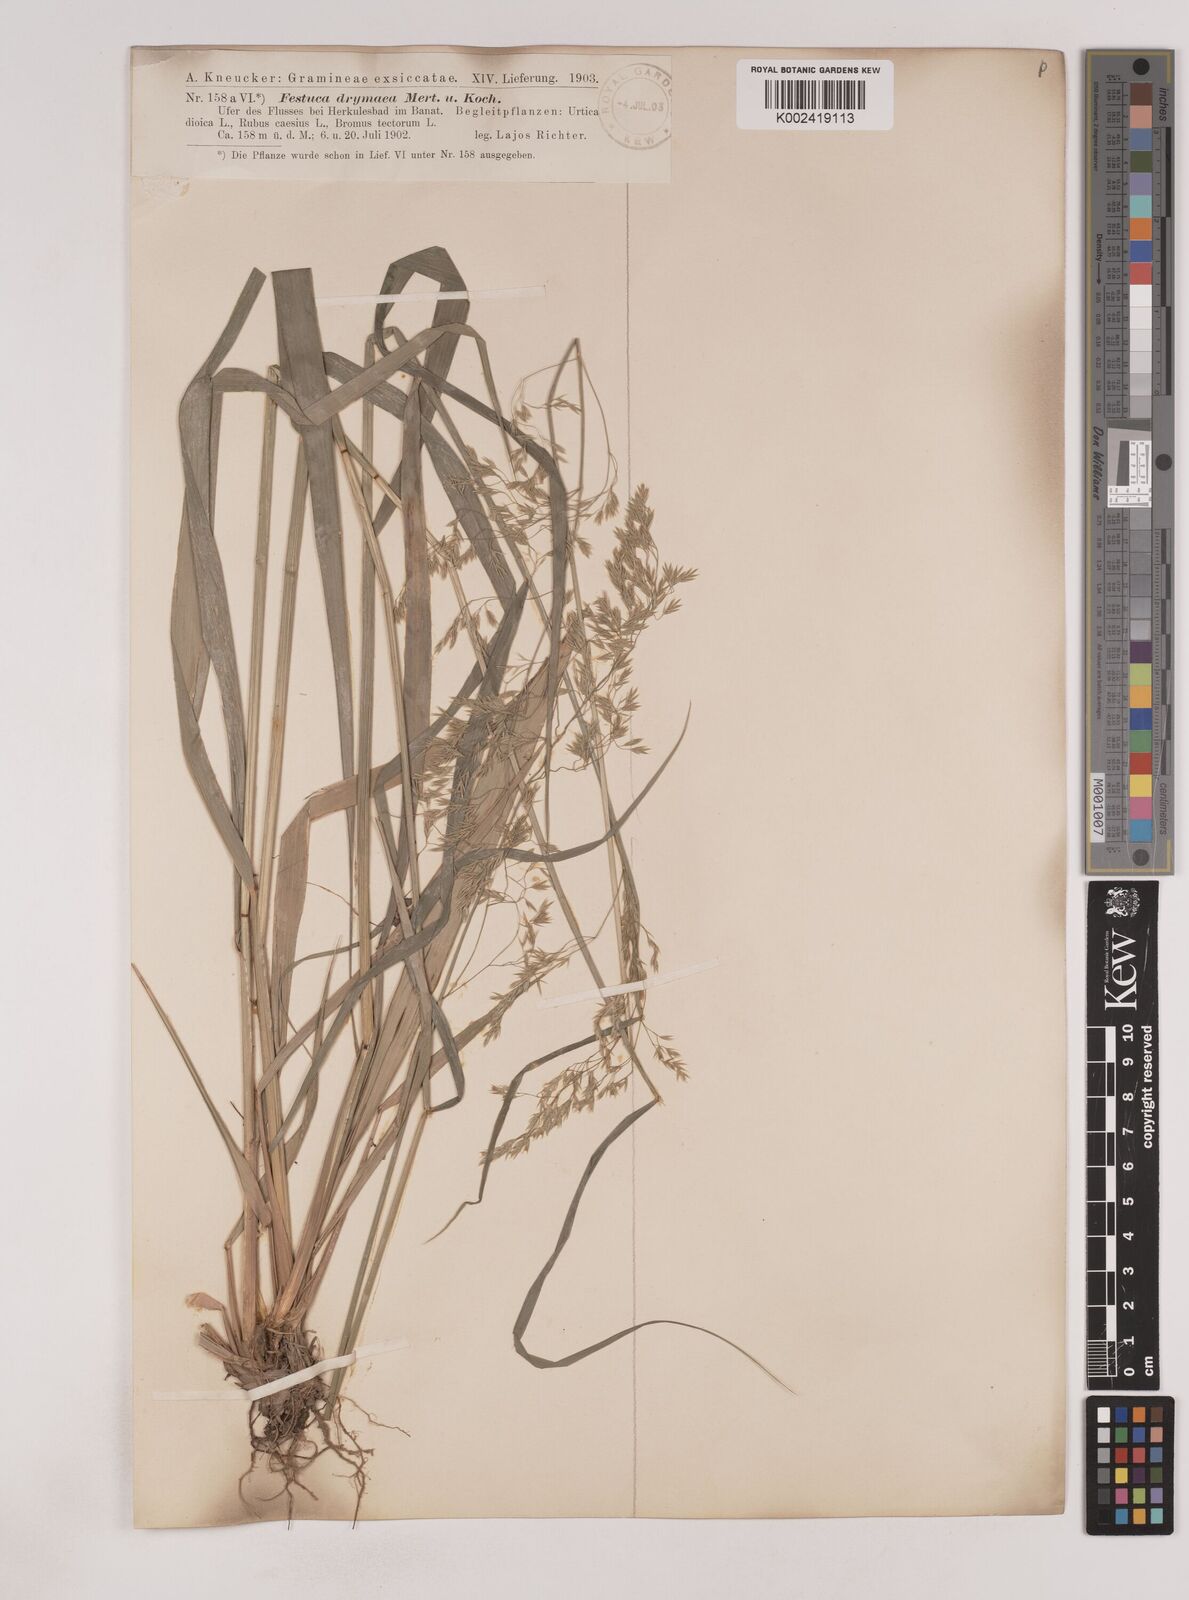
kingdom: Plantae
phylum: Tracheophyta
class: Liliopsida
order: Poales
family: Poaceae
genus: Festuca
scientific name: Festuca drymeja
